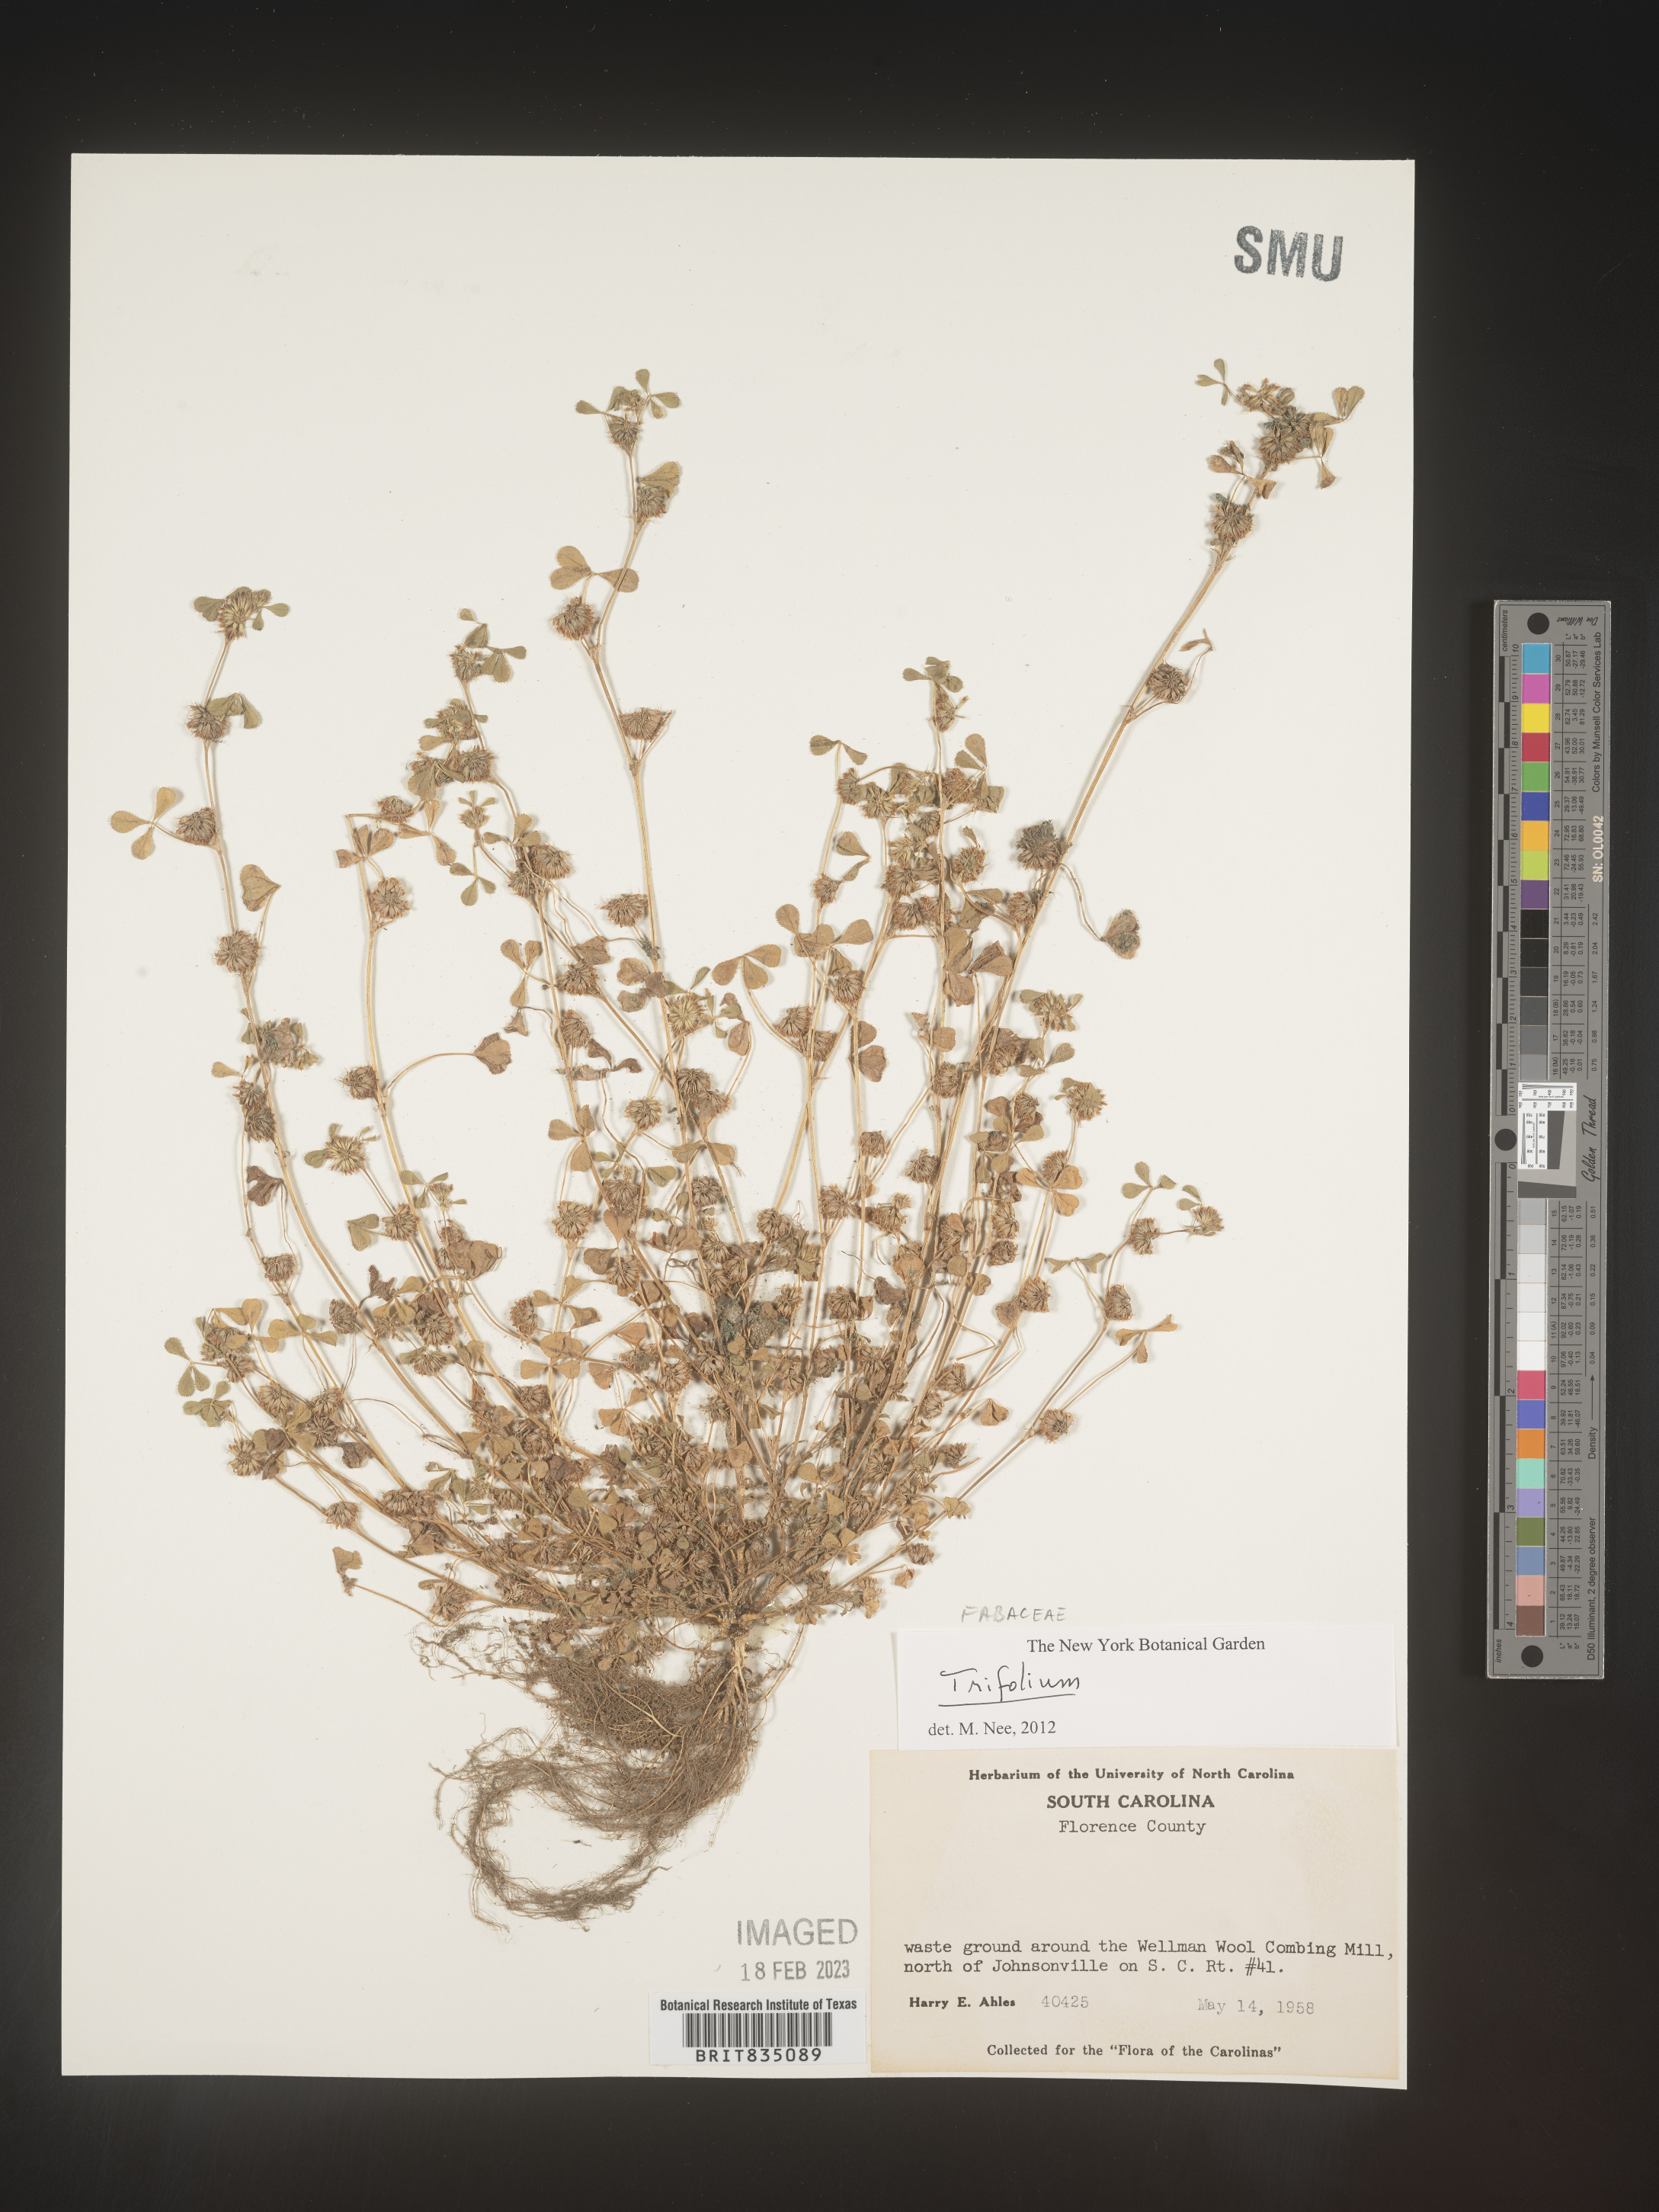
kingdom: Plantae
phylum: Tracheophyta
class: Magnoliopsida
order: Fabales
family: Fabaceae
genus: Trifolium
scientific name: Trifolium
